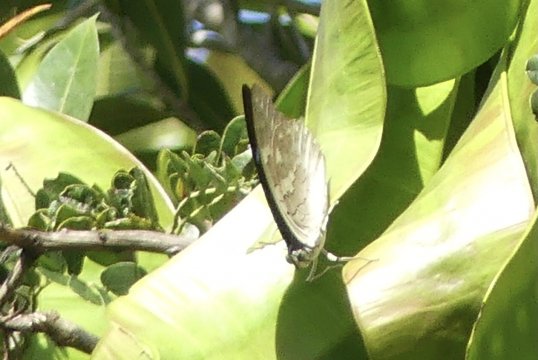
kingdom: Animalia
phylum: Arthropoda
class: Insecta
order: Lepidoptera
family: Nymphalidae
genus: Prepona
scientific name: Prepona demophoon
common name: Two-spotted Prepona
